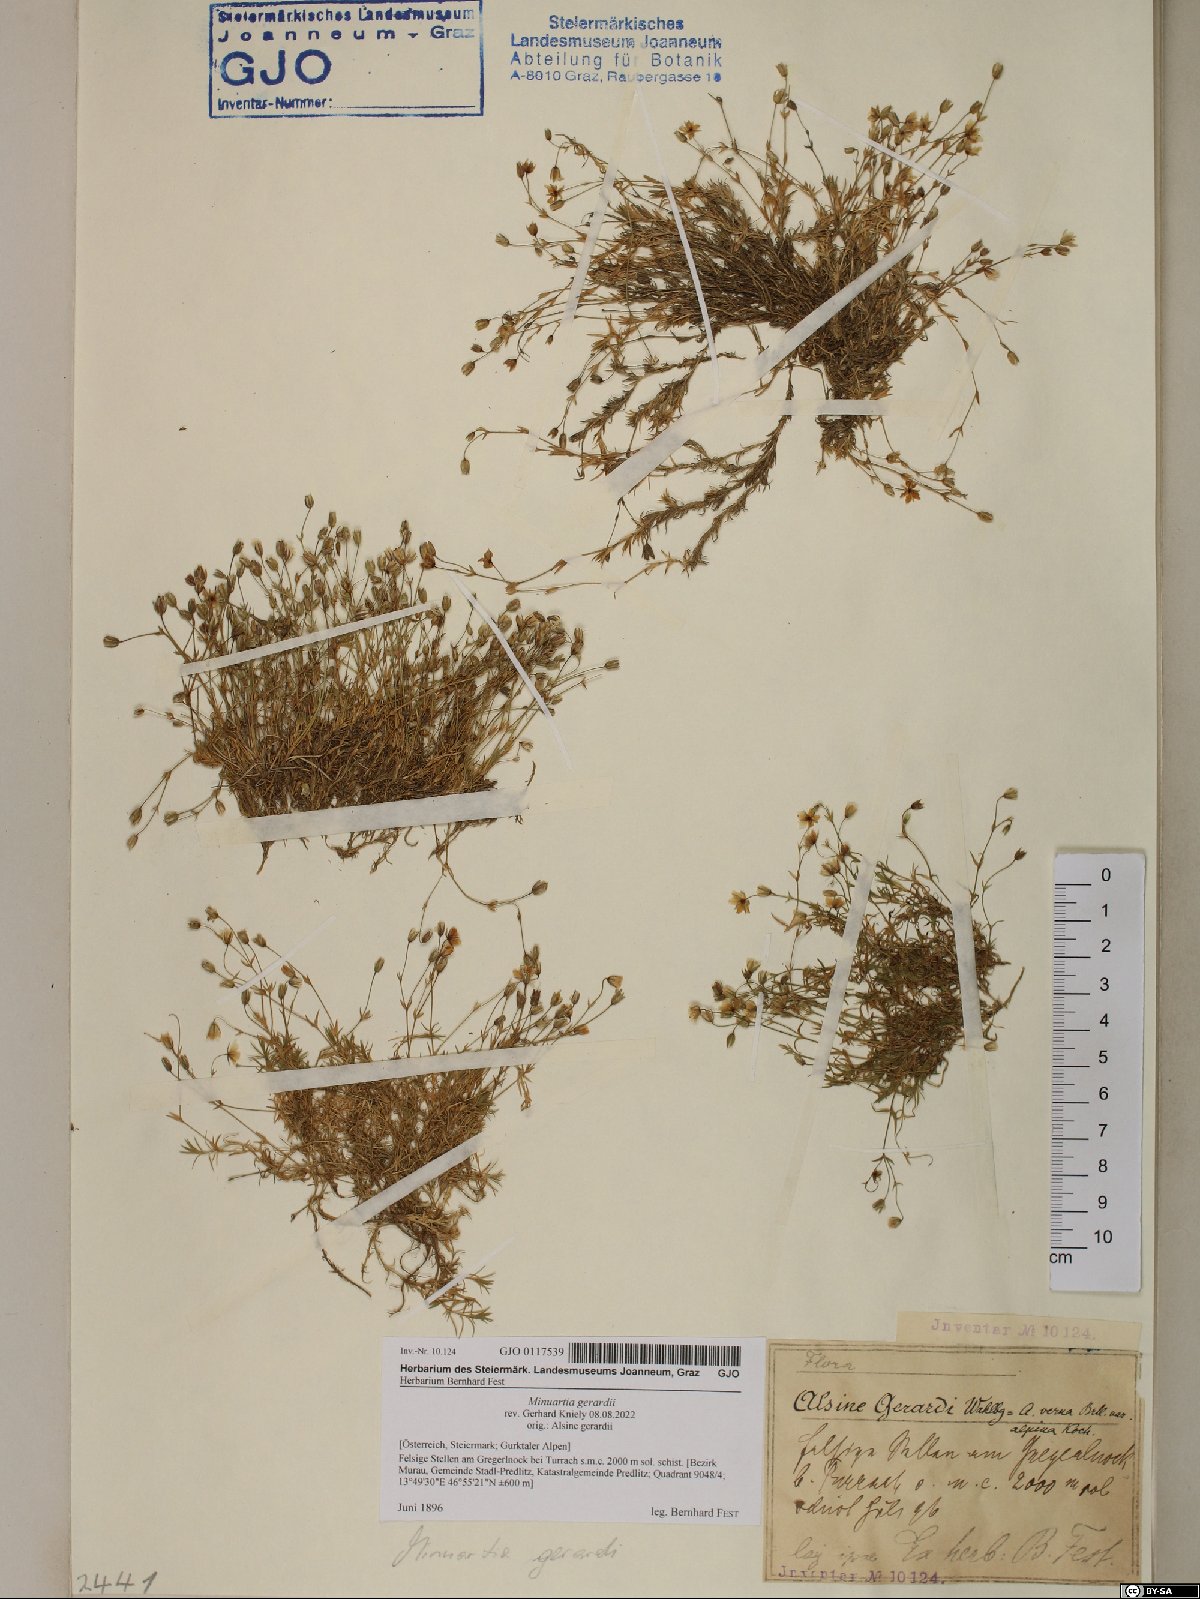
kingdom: Plantae
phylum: Tracheophyta
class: Magnoliopsida
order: Caryophyllales
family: Caryophyllaceae
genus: Sabulina
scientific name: Sabulina verna
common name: Spring sandwort
